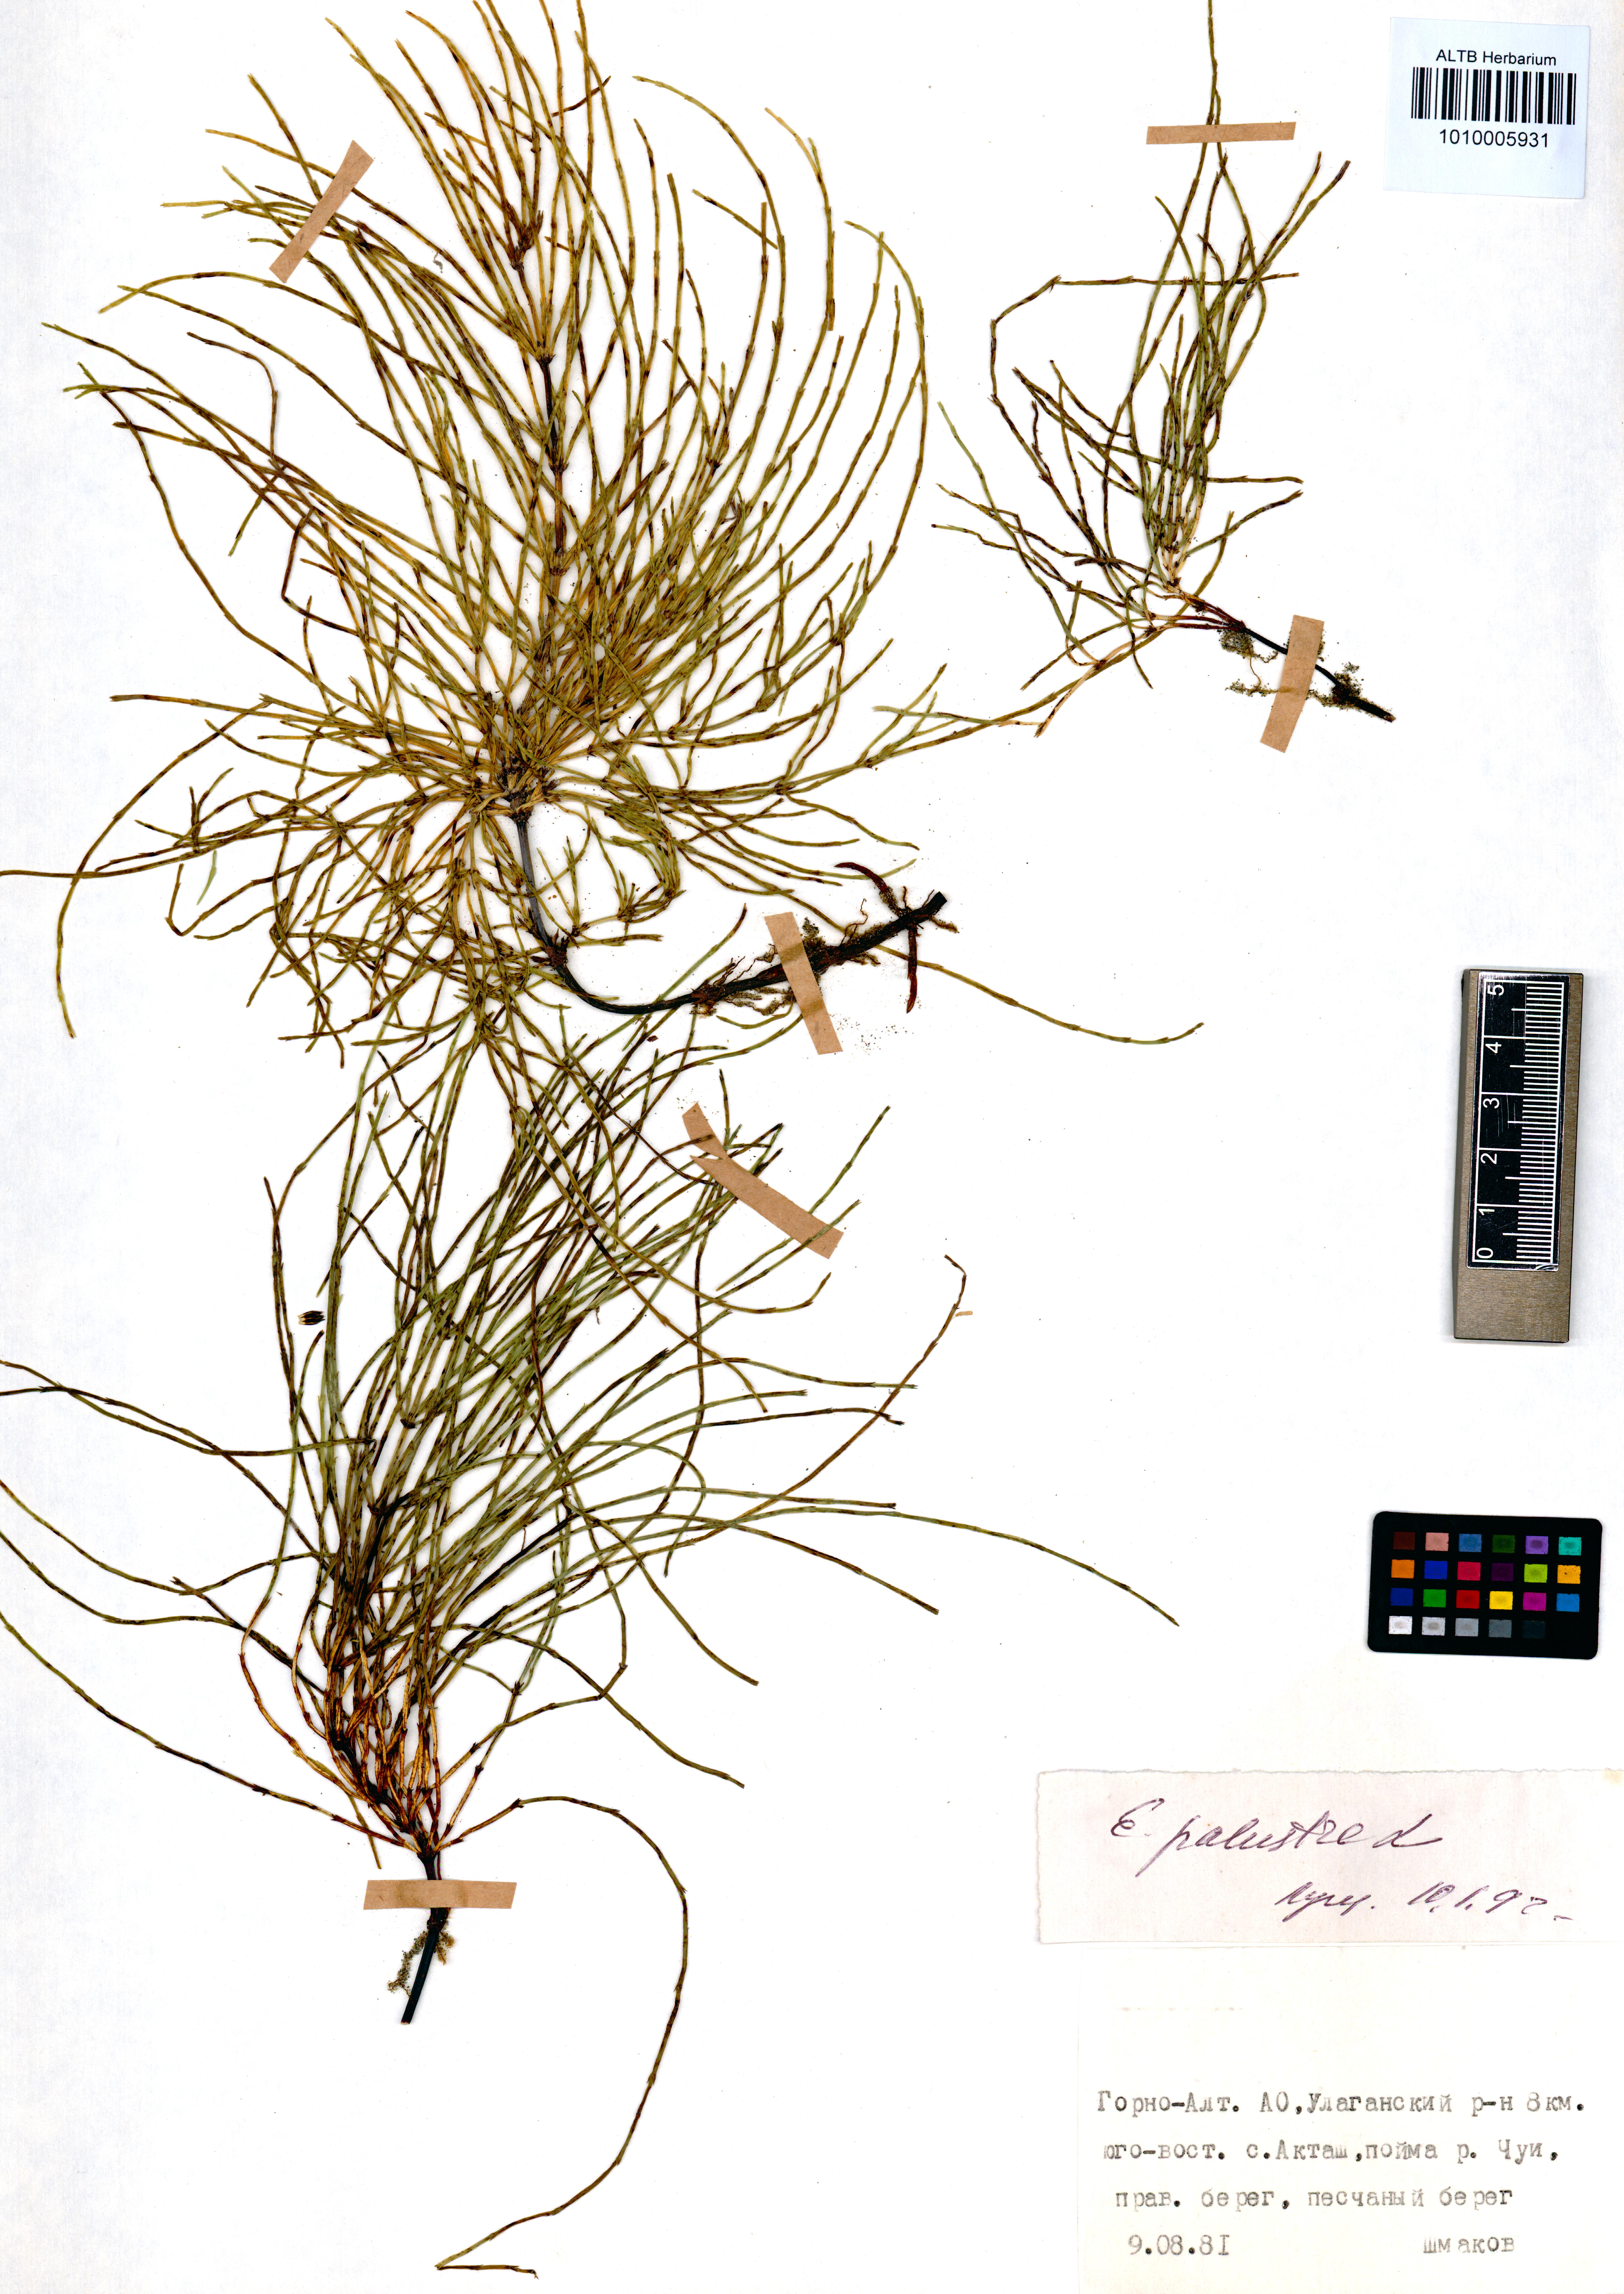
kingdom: Plantae
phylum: Tracheophyta
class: Polypodiopsida
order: Equisetales
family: Equisetaceae
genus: Equisetum
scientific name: Equisetum palustre
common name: Marsh horsetail
